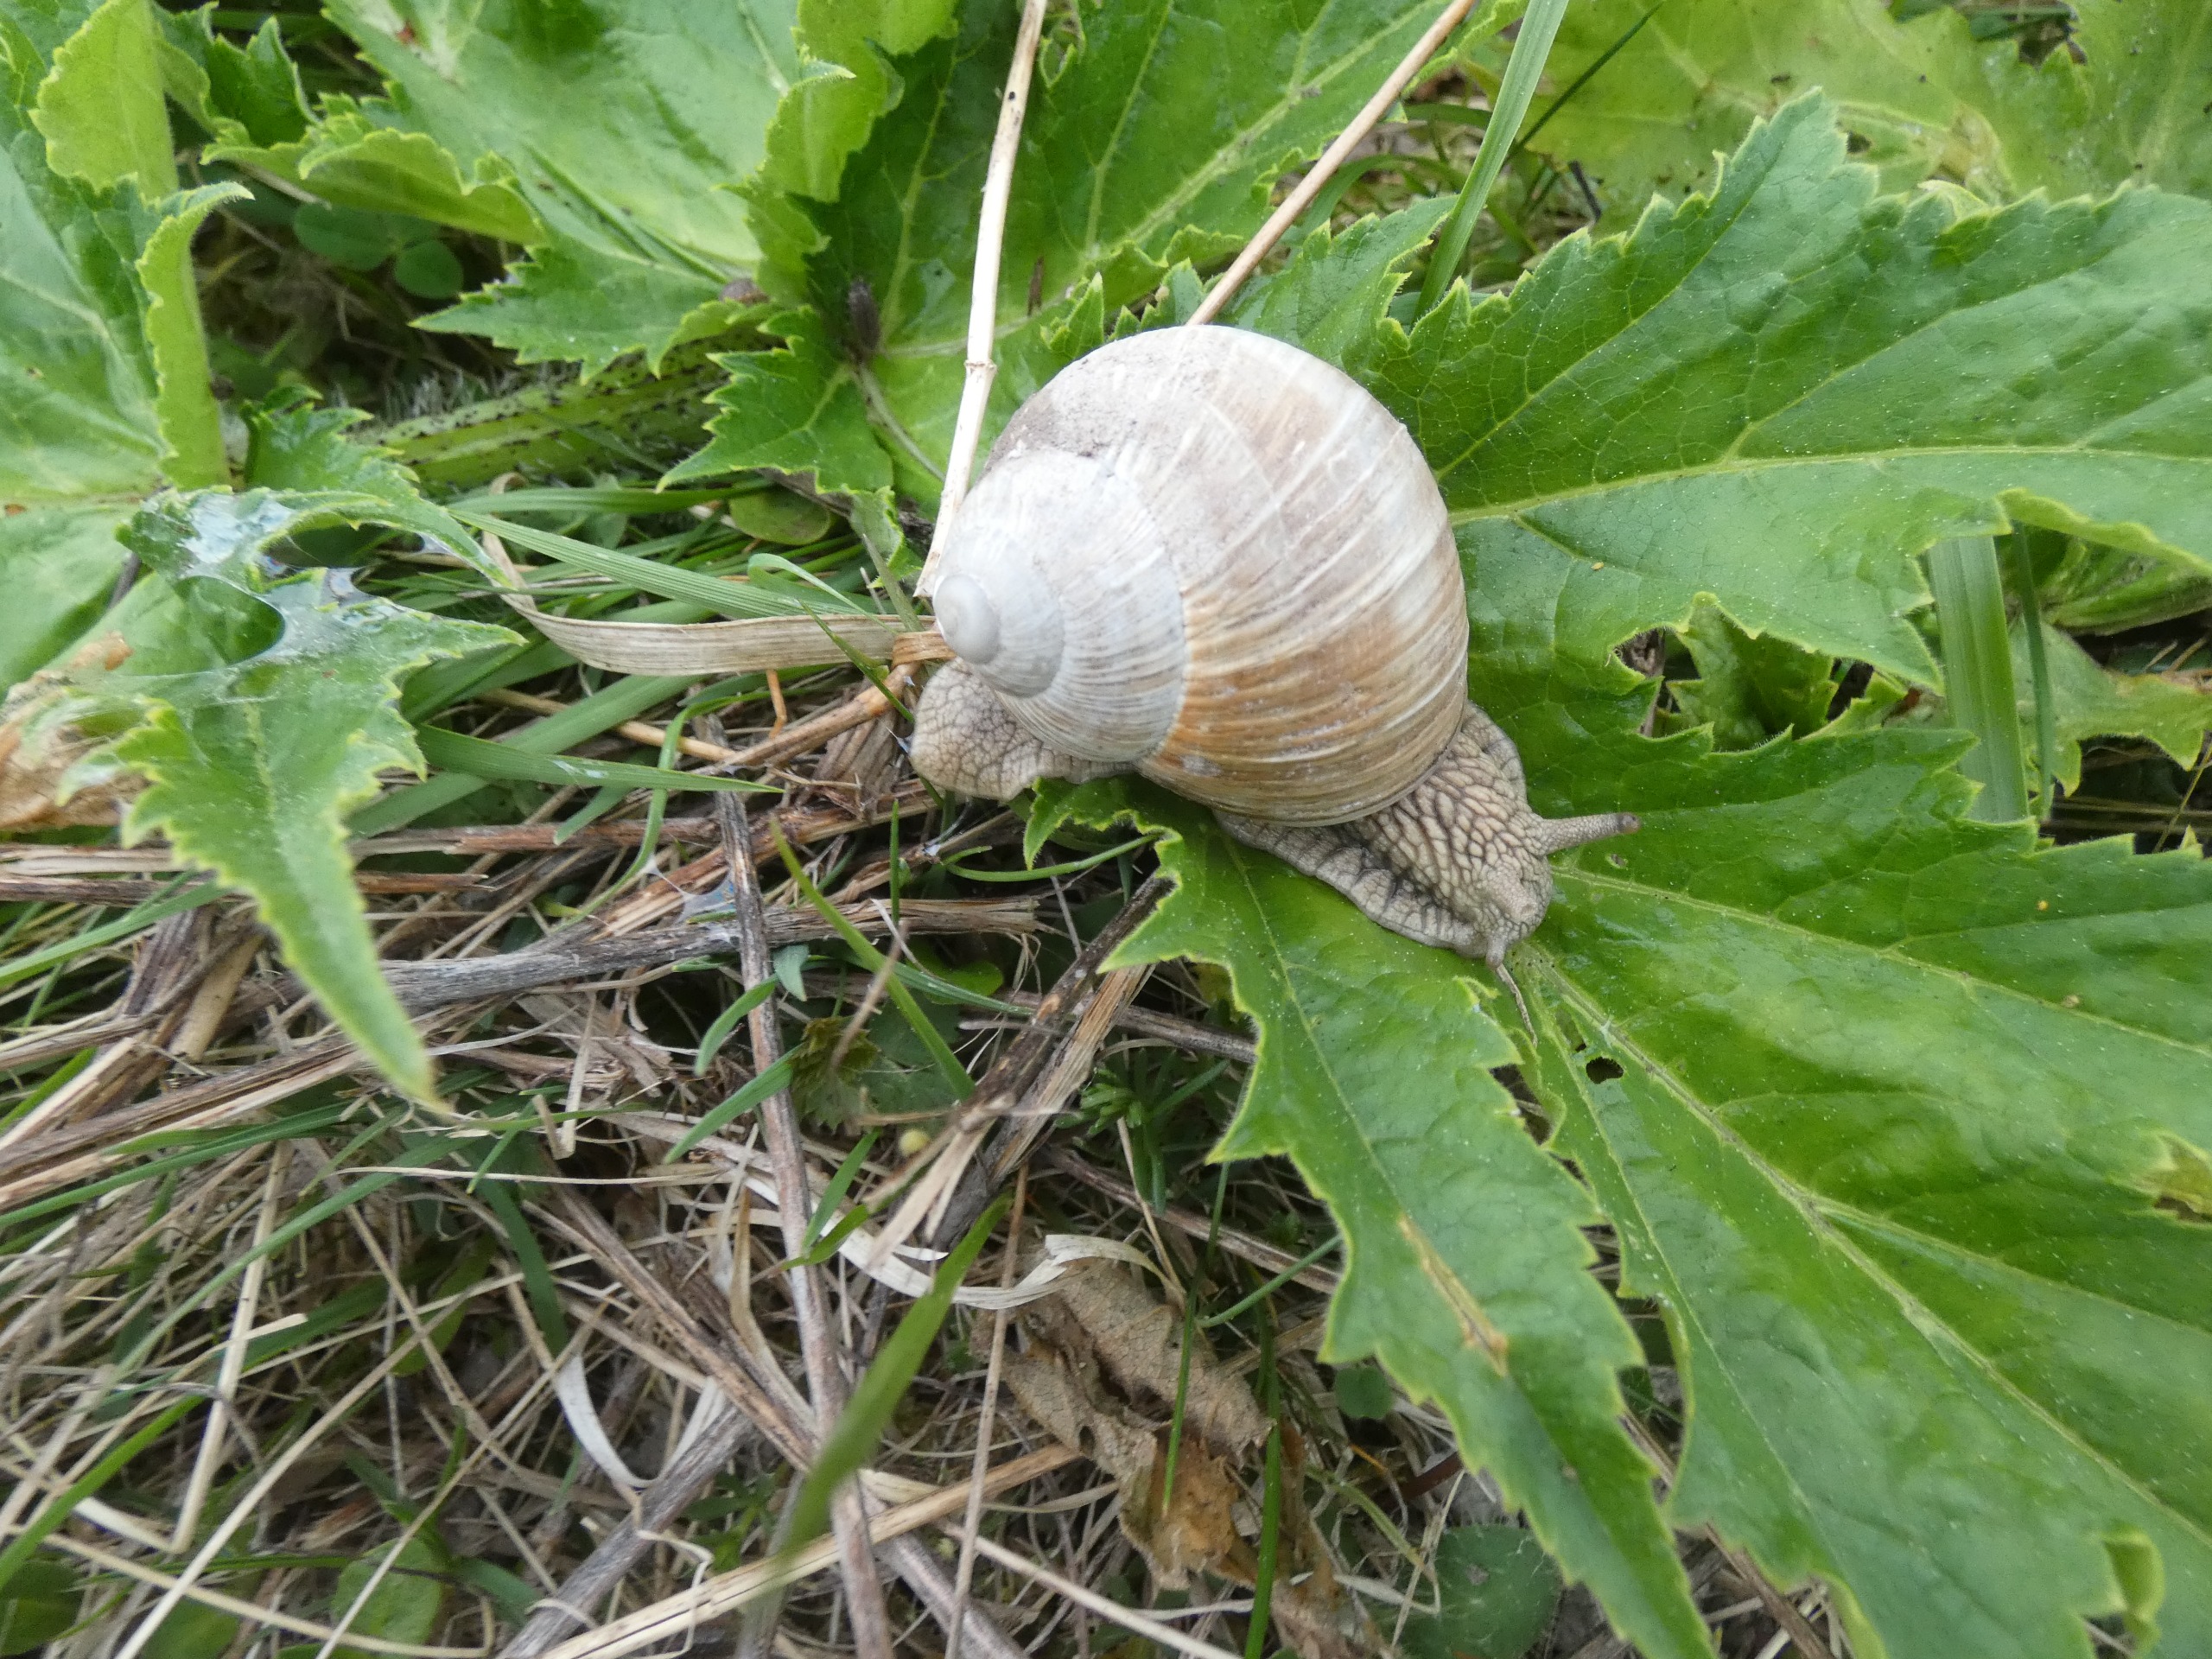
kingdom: Animalia
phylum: Mollusca
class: Gastropoda
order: Stylommatophora
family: Helicidae
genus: Helix
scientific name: Helix pomatia
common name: Vinbjergsnegl
